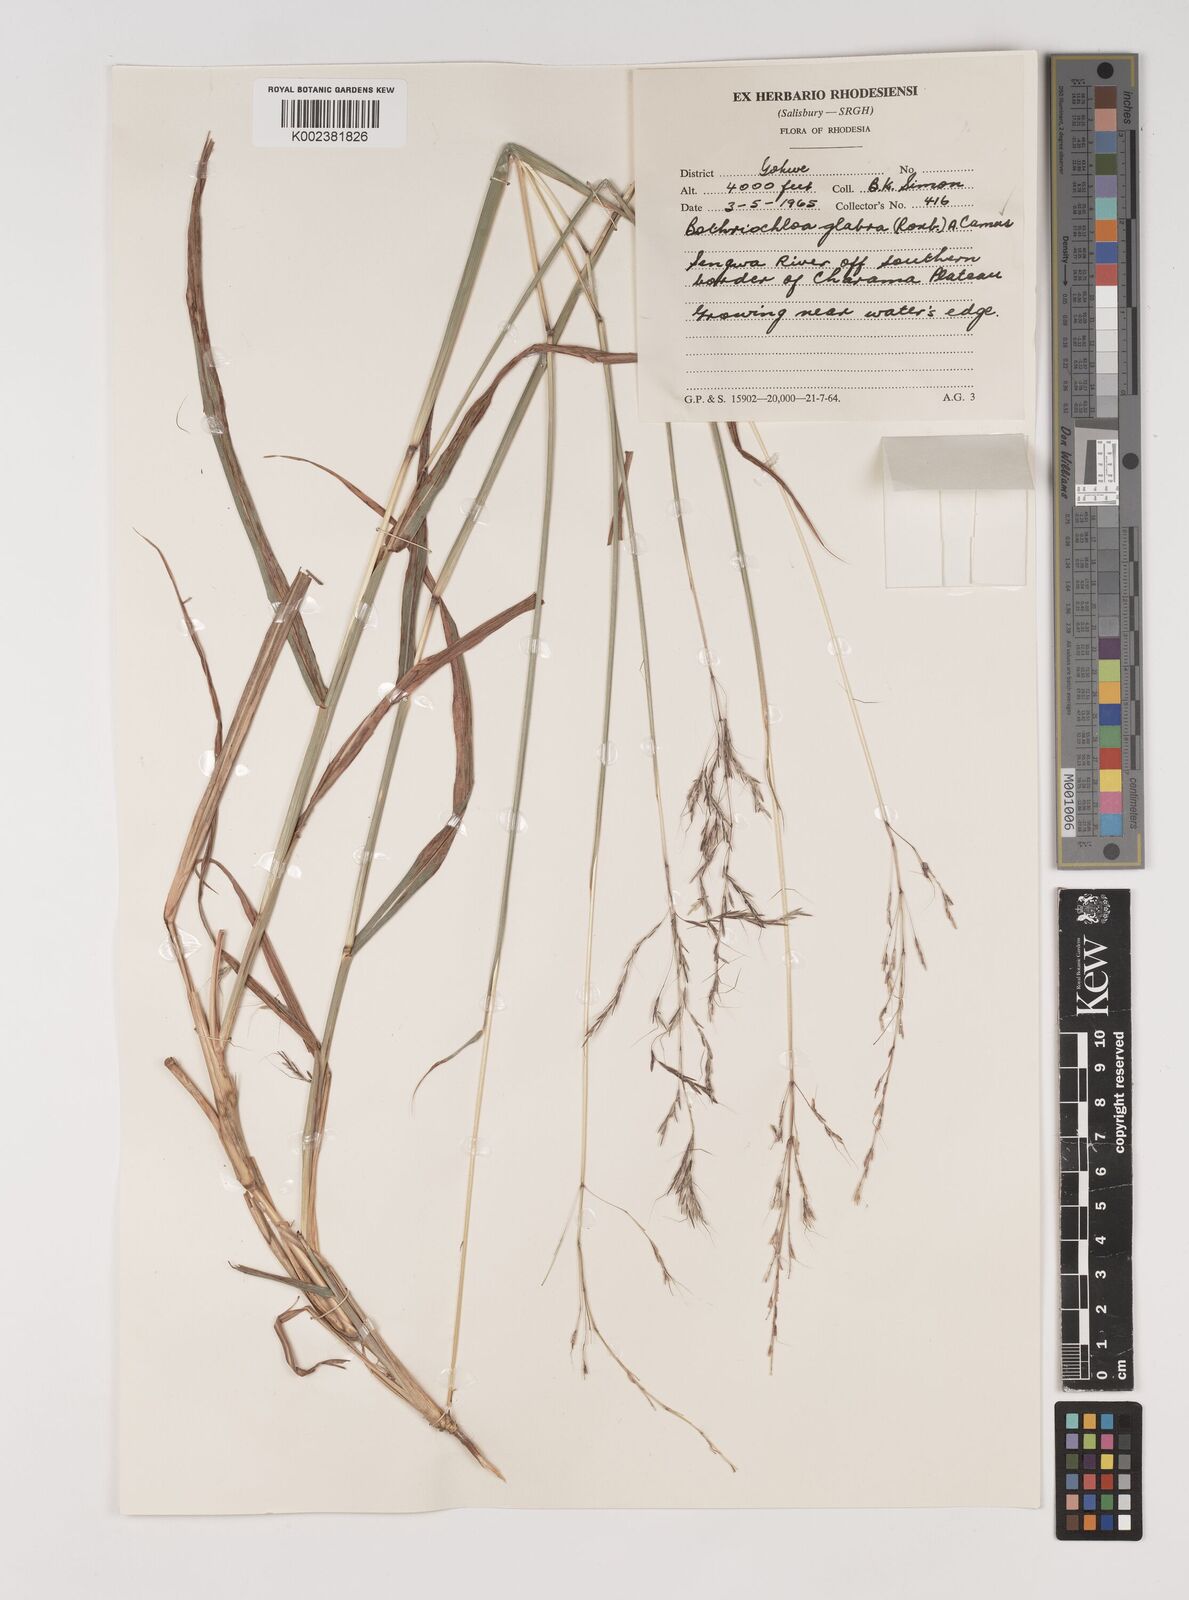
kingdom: Plantae
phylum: Tracheophyta
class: Liliopsida
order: Poales
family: Poaceae
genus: Bothriochloa
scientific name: Bothriochloa bladhii
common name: Caucasian bluestem
